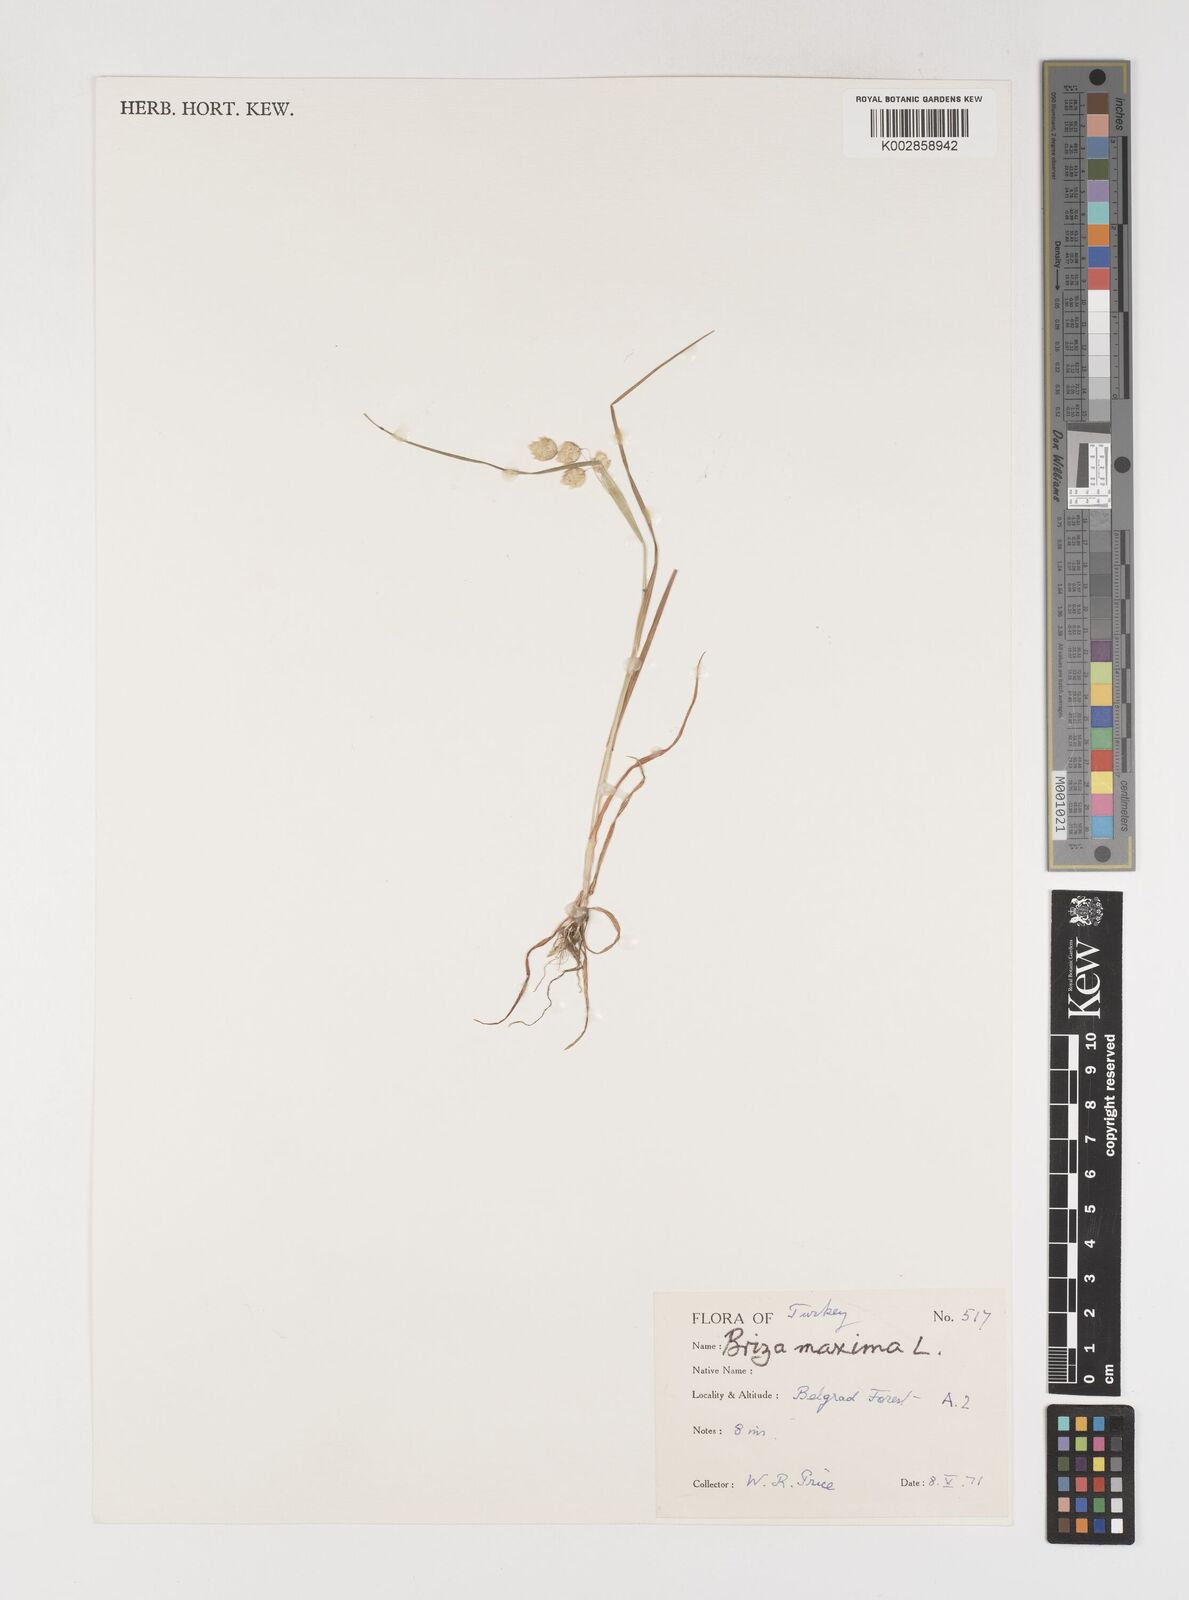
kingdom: Plantae
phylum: Tracheophyta
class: Liliopsida
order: Poales
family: Poaceae
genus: Briza
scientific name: Briza maxima
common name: Big quakinggrass
